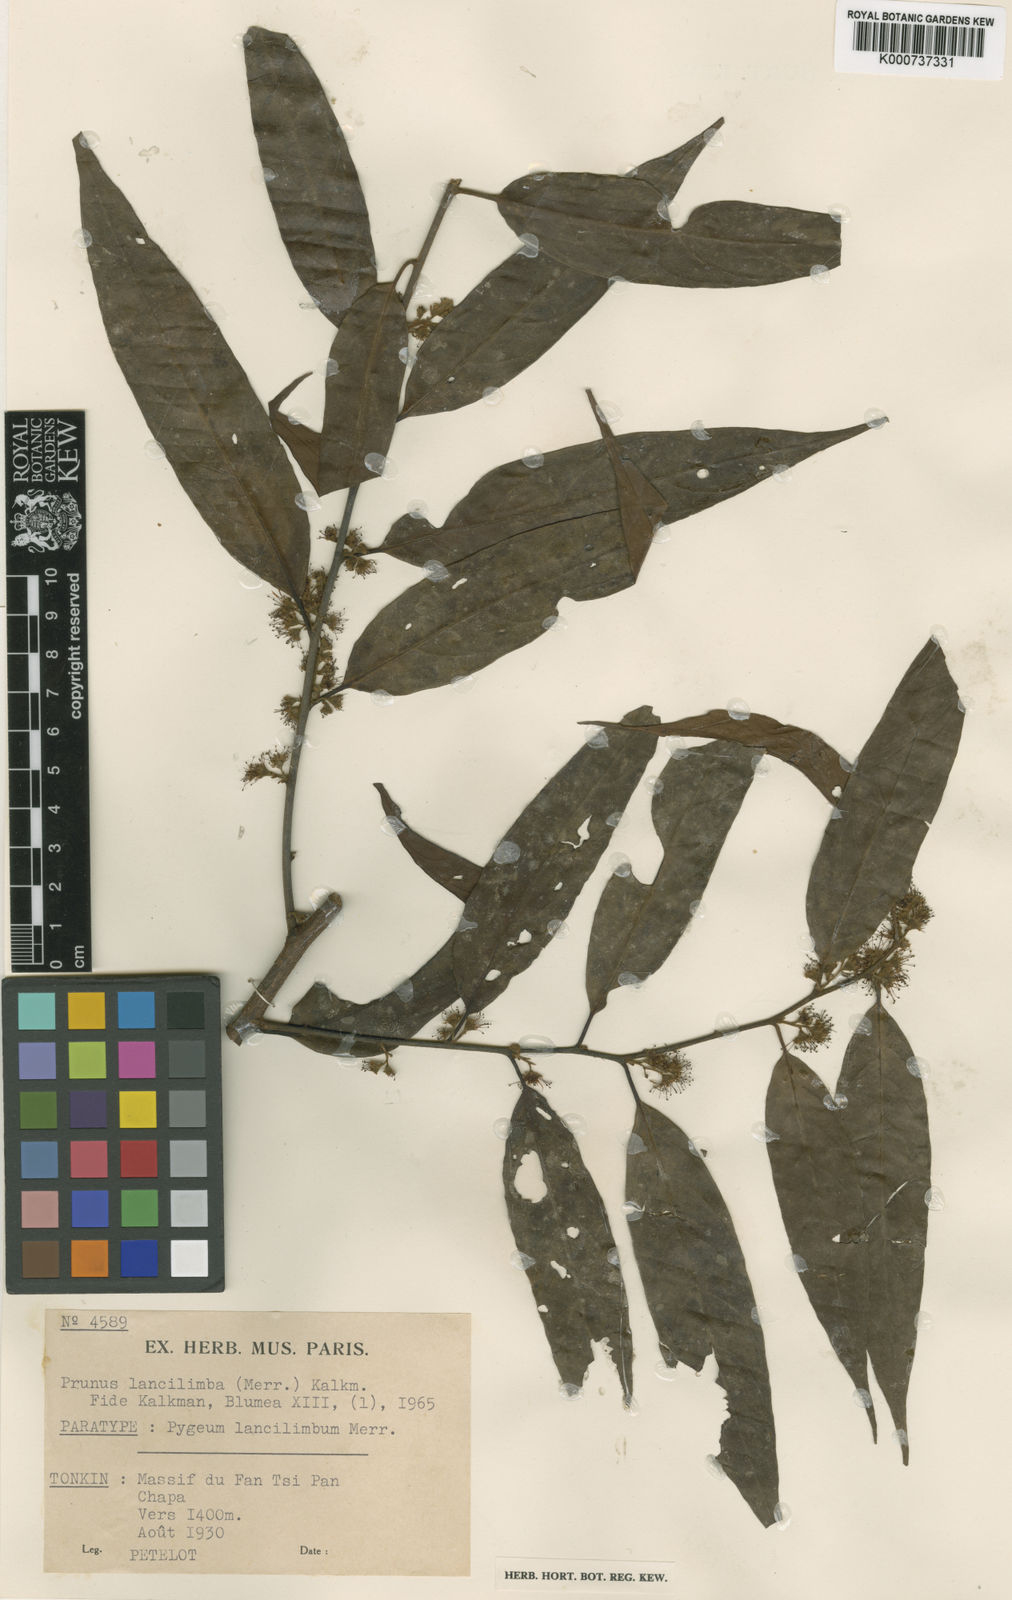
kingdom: Plantae
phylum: Tracheophyta
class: Magnoliopsida
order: Rosales
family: Rosaceae
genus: Prunus
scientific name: Prunus lancilimba
